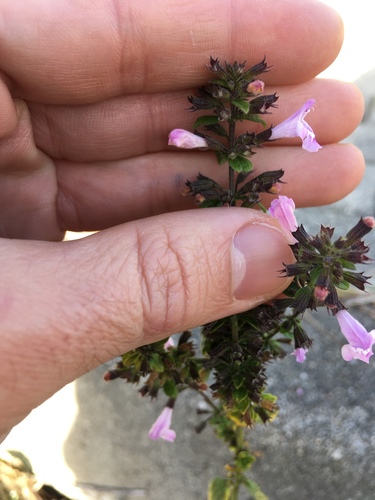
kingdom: Plantae
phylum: Tracheophyta
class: Magnoliopsida
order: Lamiales
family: Lamiaceae
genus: Clinopodium
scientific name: Clinopodium nepeta
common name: Lesser calamint
